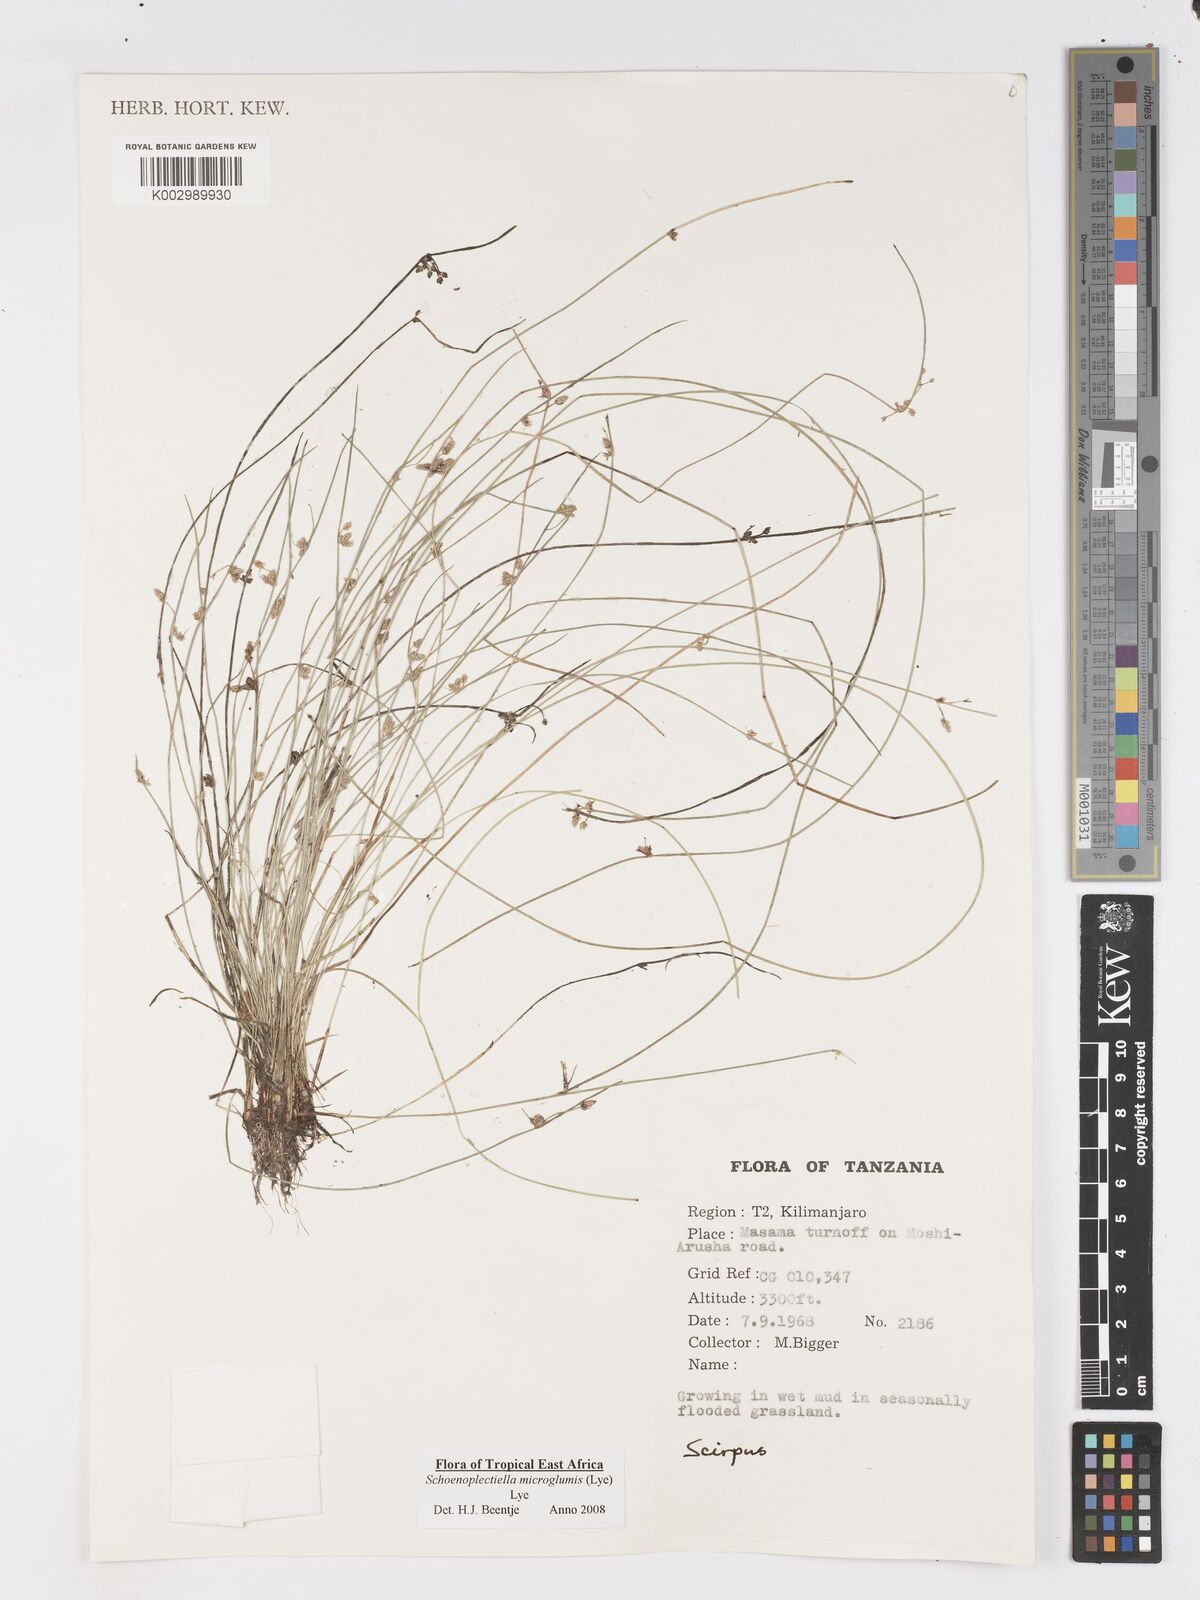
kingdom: Plantae
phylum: Tracheophyta
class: Liliopsida
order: Poales
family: Cyperaceae
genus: Schoenoplectiella
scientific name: Schoenoplectiella microglumis
